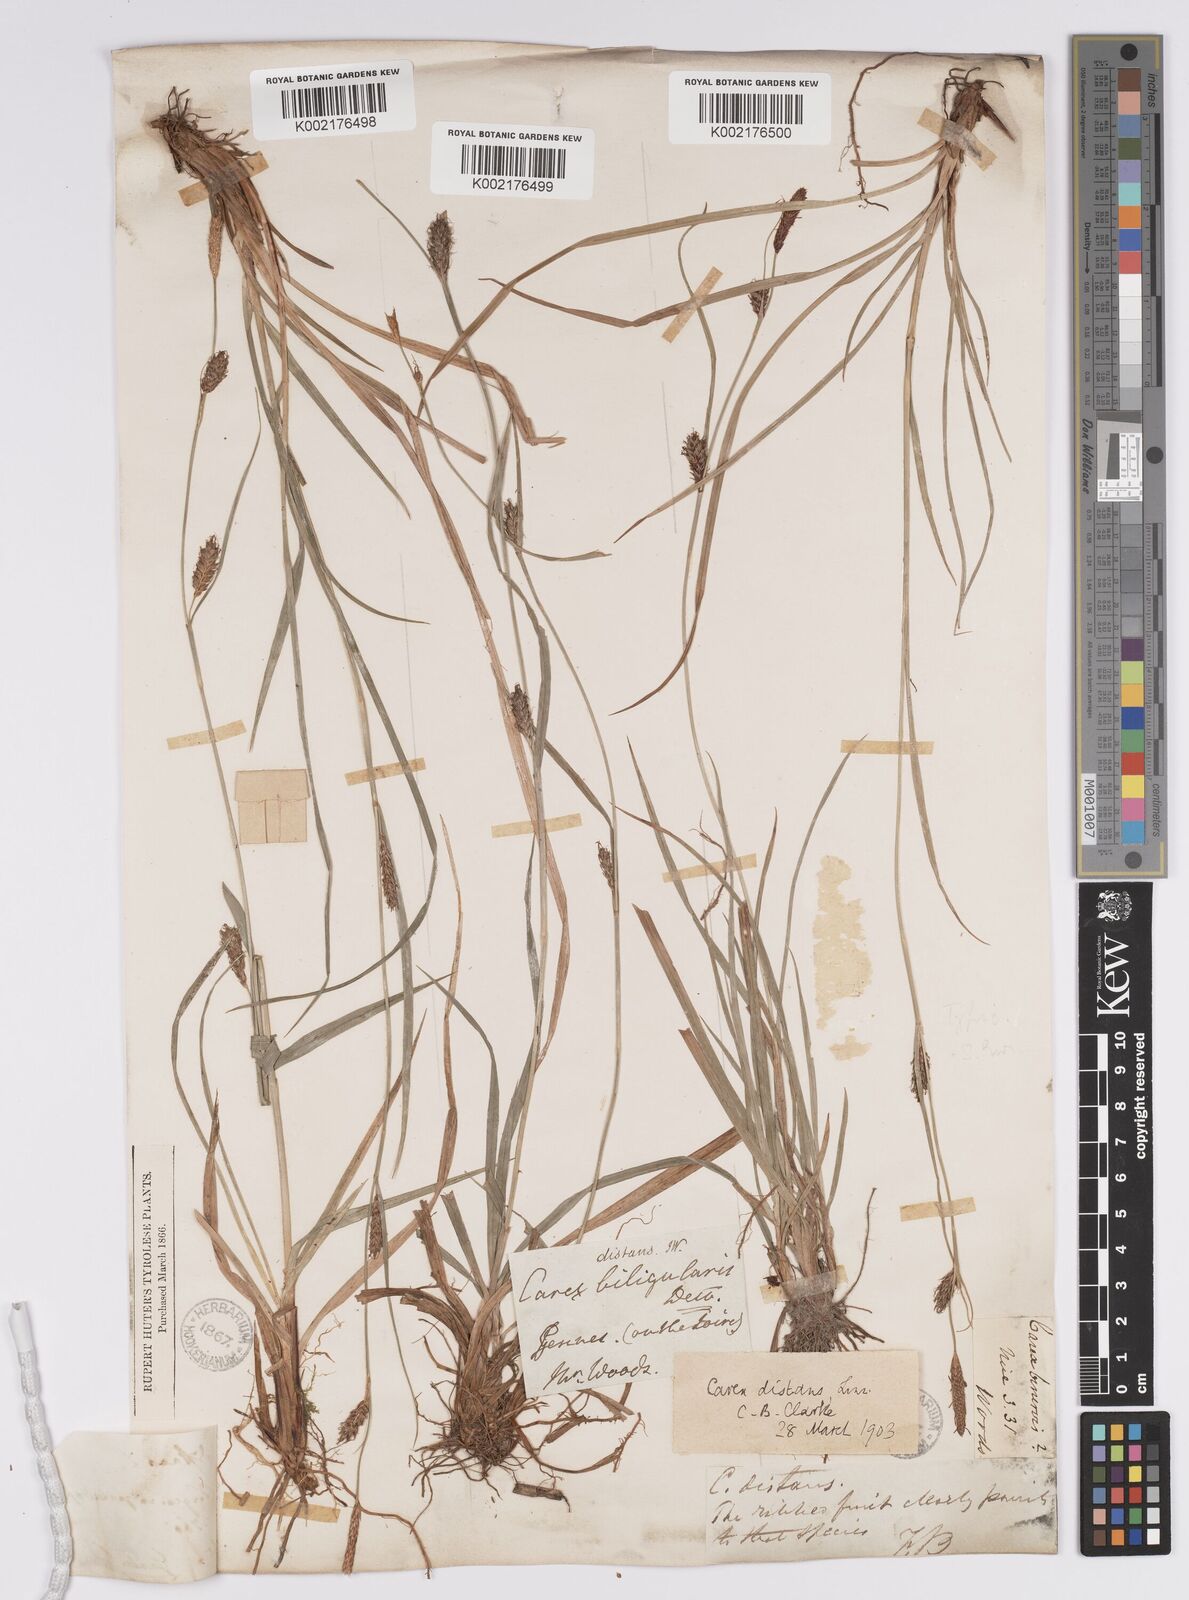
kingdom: Plantae
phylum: Tracheophyta
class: Liliopsida
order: Poales
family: Cyperaceae
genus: Carex
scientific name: Carex distans
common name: Distant sedge
